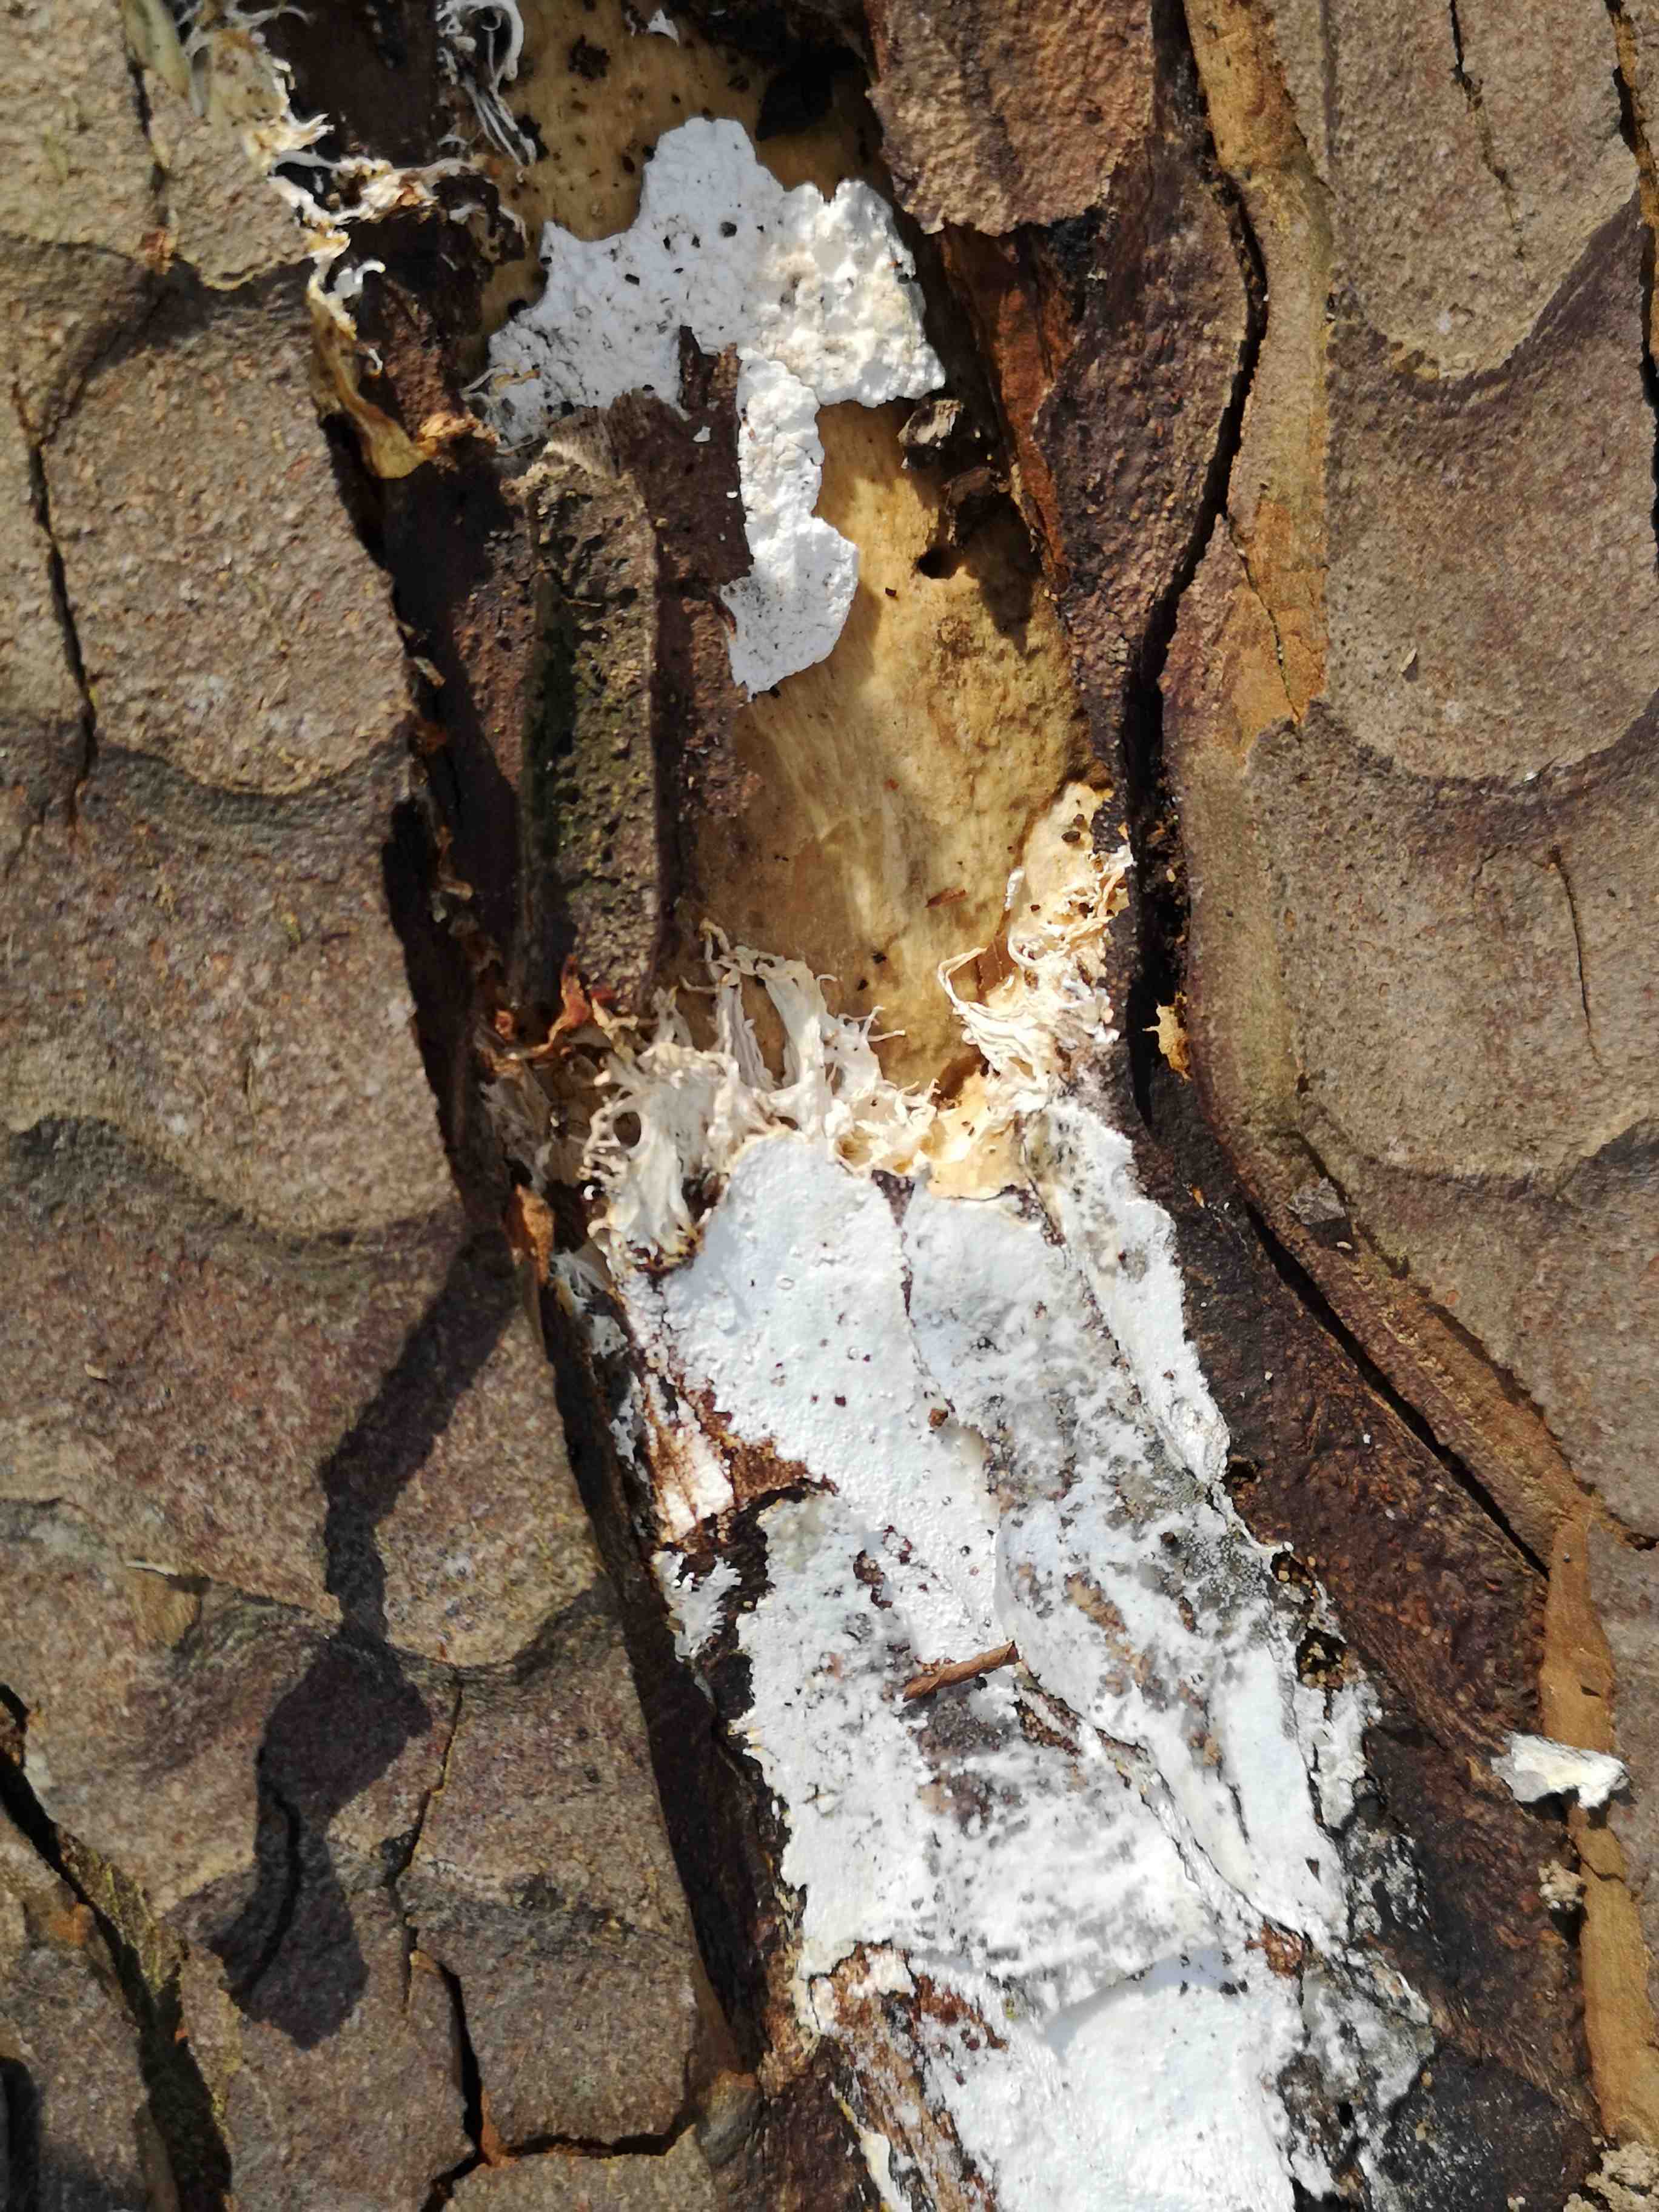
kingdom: Fungi
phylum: Basidiomycota
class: Agaricomycetes
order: Corticiales
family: Corticiaceae
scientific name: Corticiaceae
